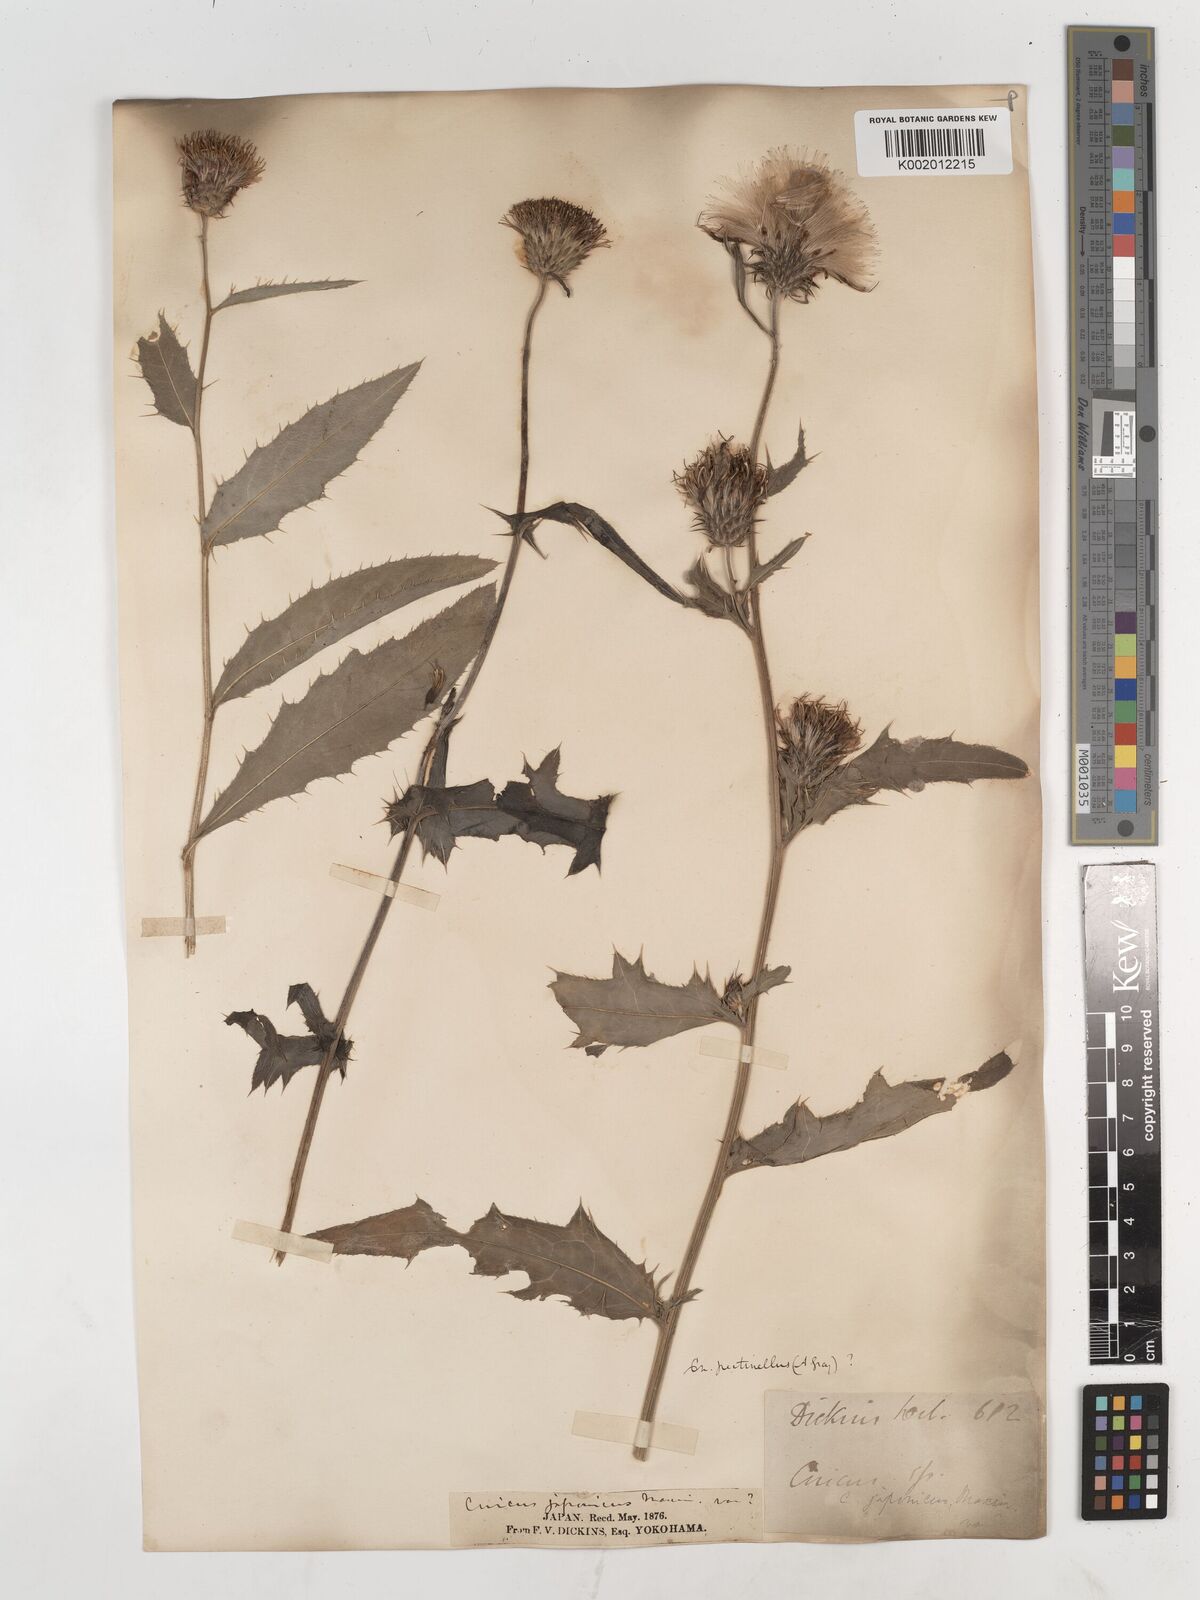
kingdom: Plantae
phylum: Tracheophyta
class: Magnoliopsida
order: Asterales
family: Asteraceae
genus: Cirsium
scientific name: Cirsium pectinellum
